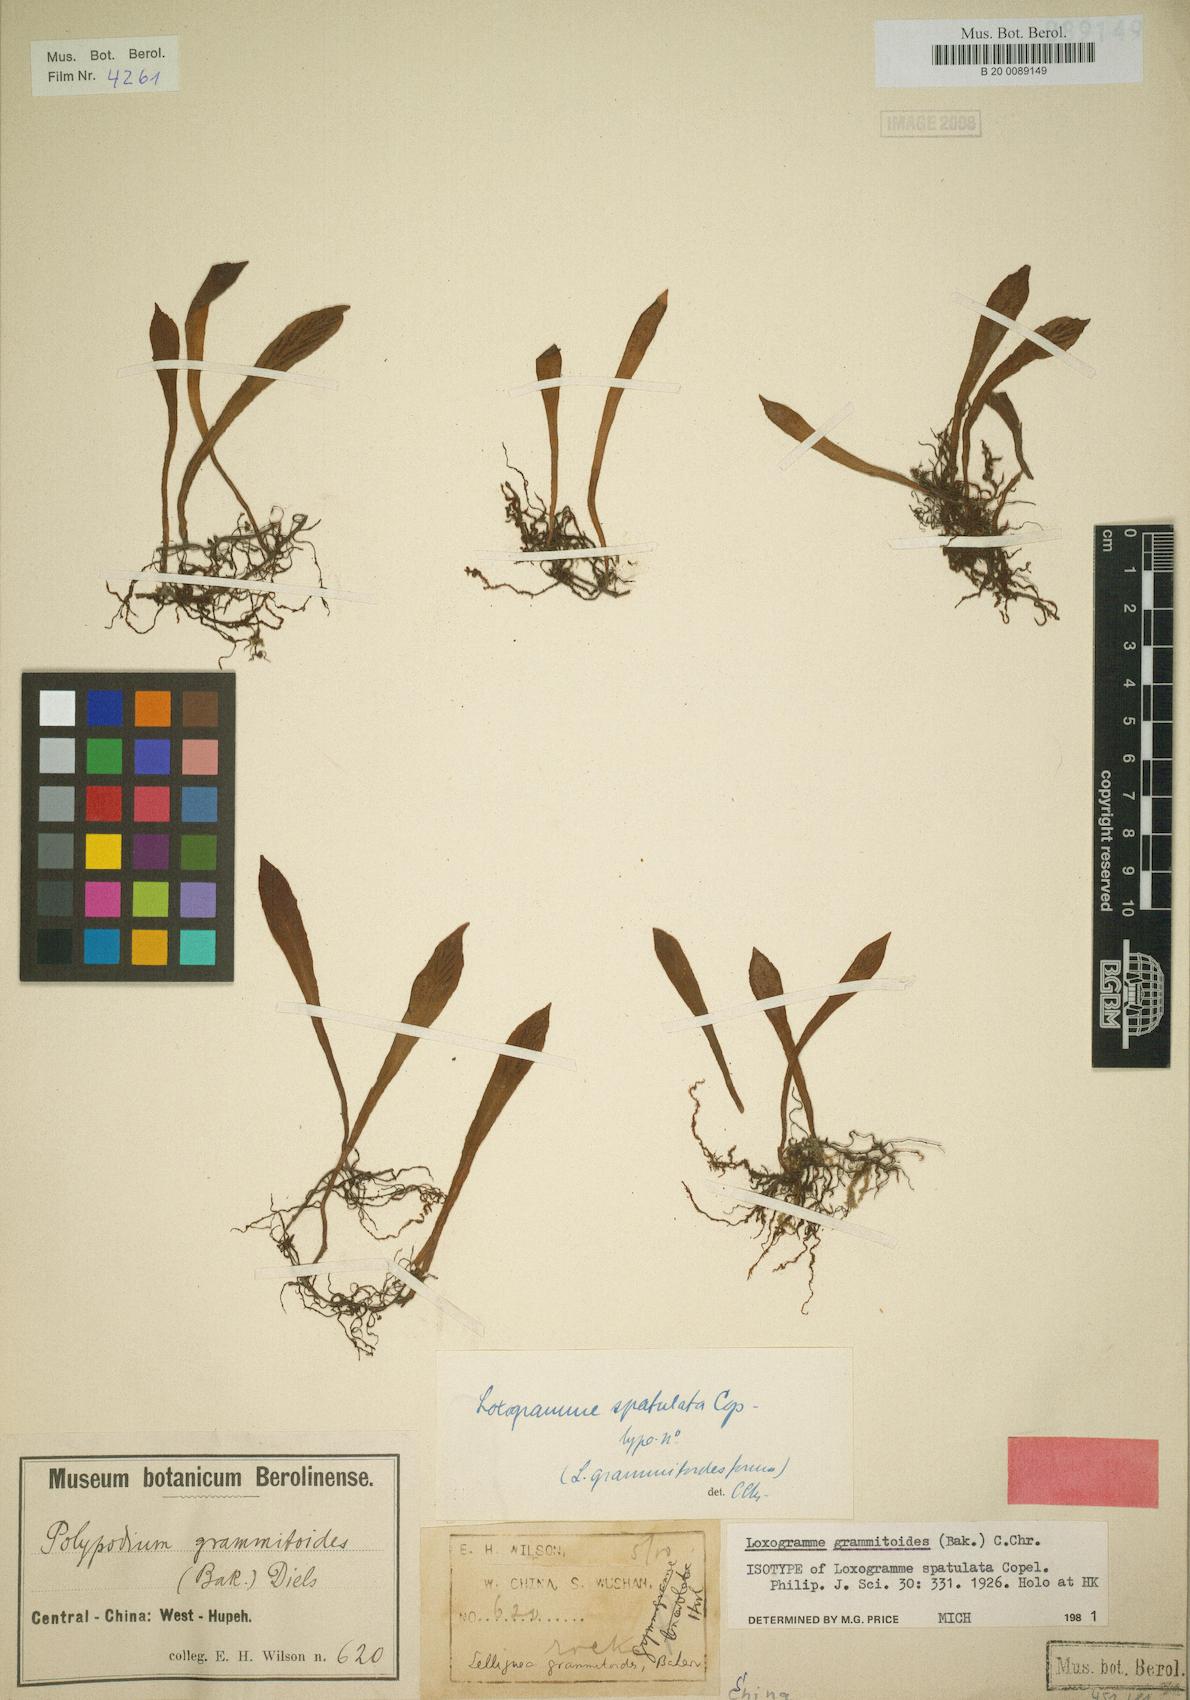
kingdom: Plantae
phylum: Tracheophyta
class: Polypodiopsida
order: Polypodiales
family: Polypodiaceae
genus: Loxogramme
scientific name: Loxogramme grammitoides
